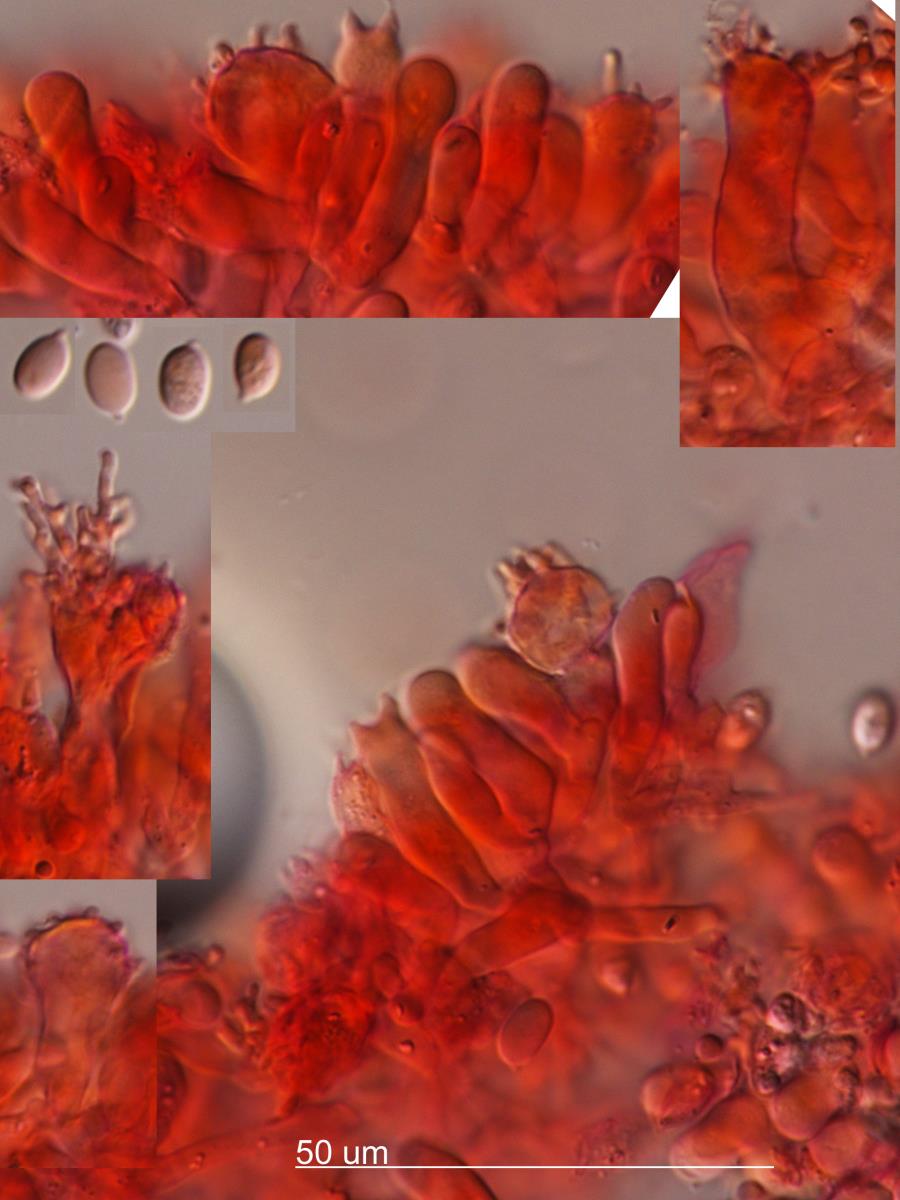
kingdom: Fungi
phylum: Basidiomycota
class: Agaricomycetes
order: Agaricales
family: Mycenaceae
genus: Mycena
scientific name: Mycena galericulata
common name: Bonnet mycena
